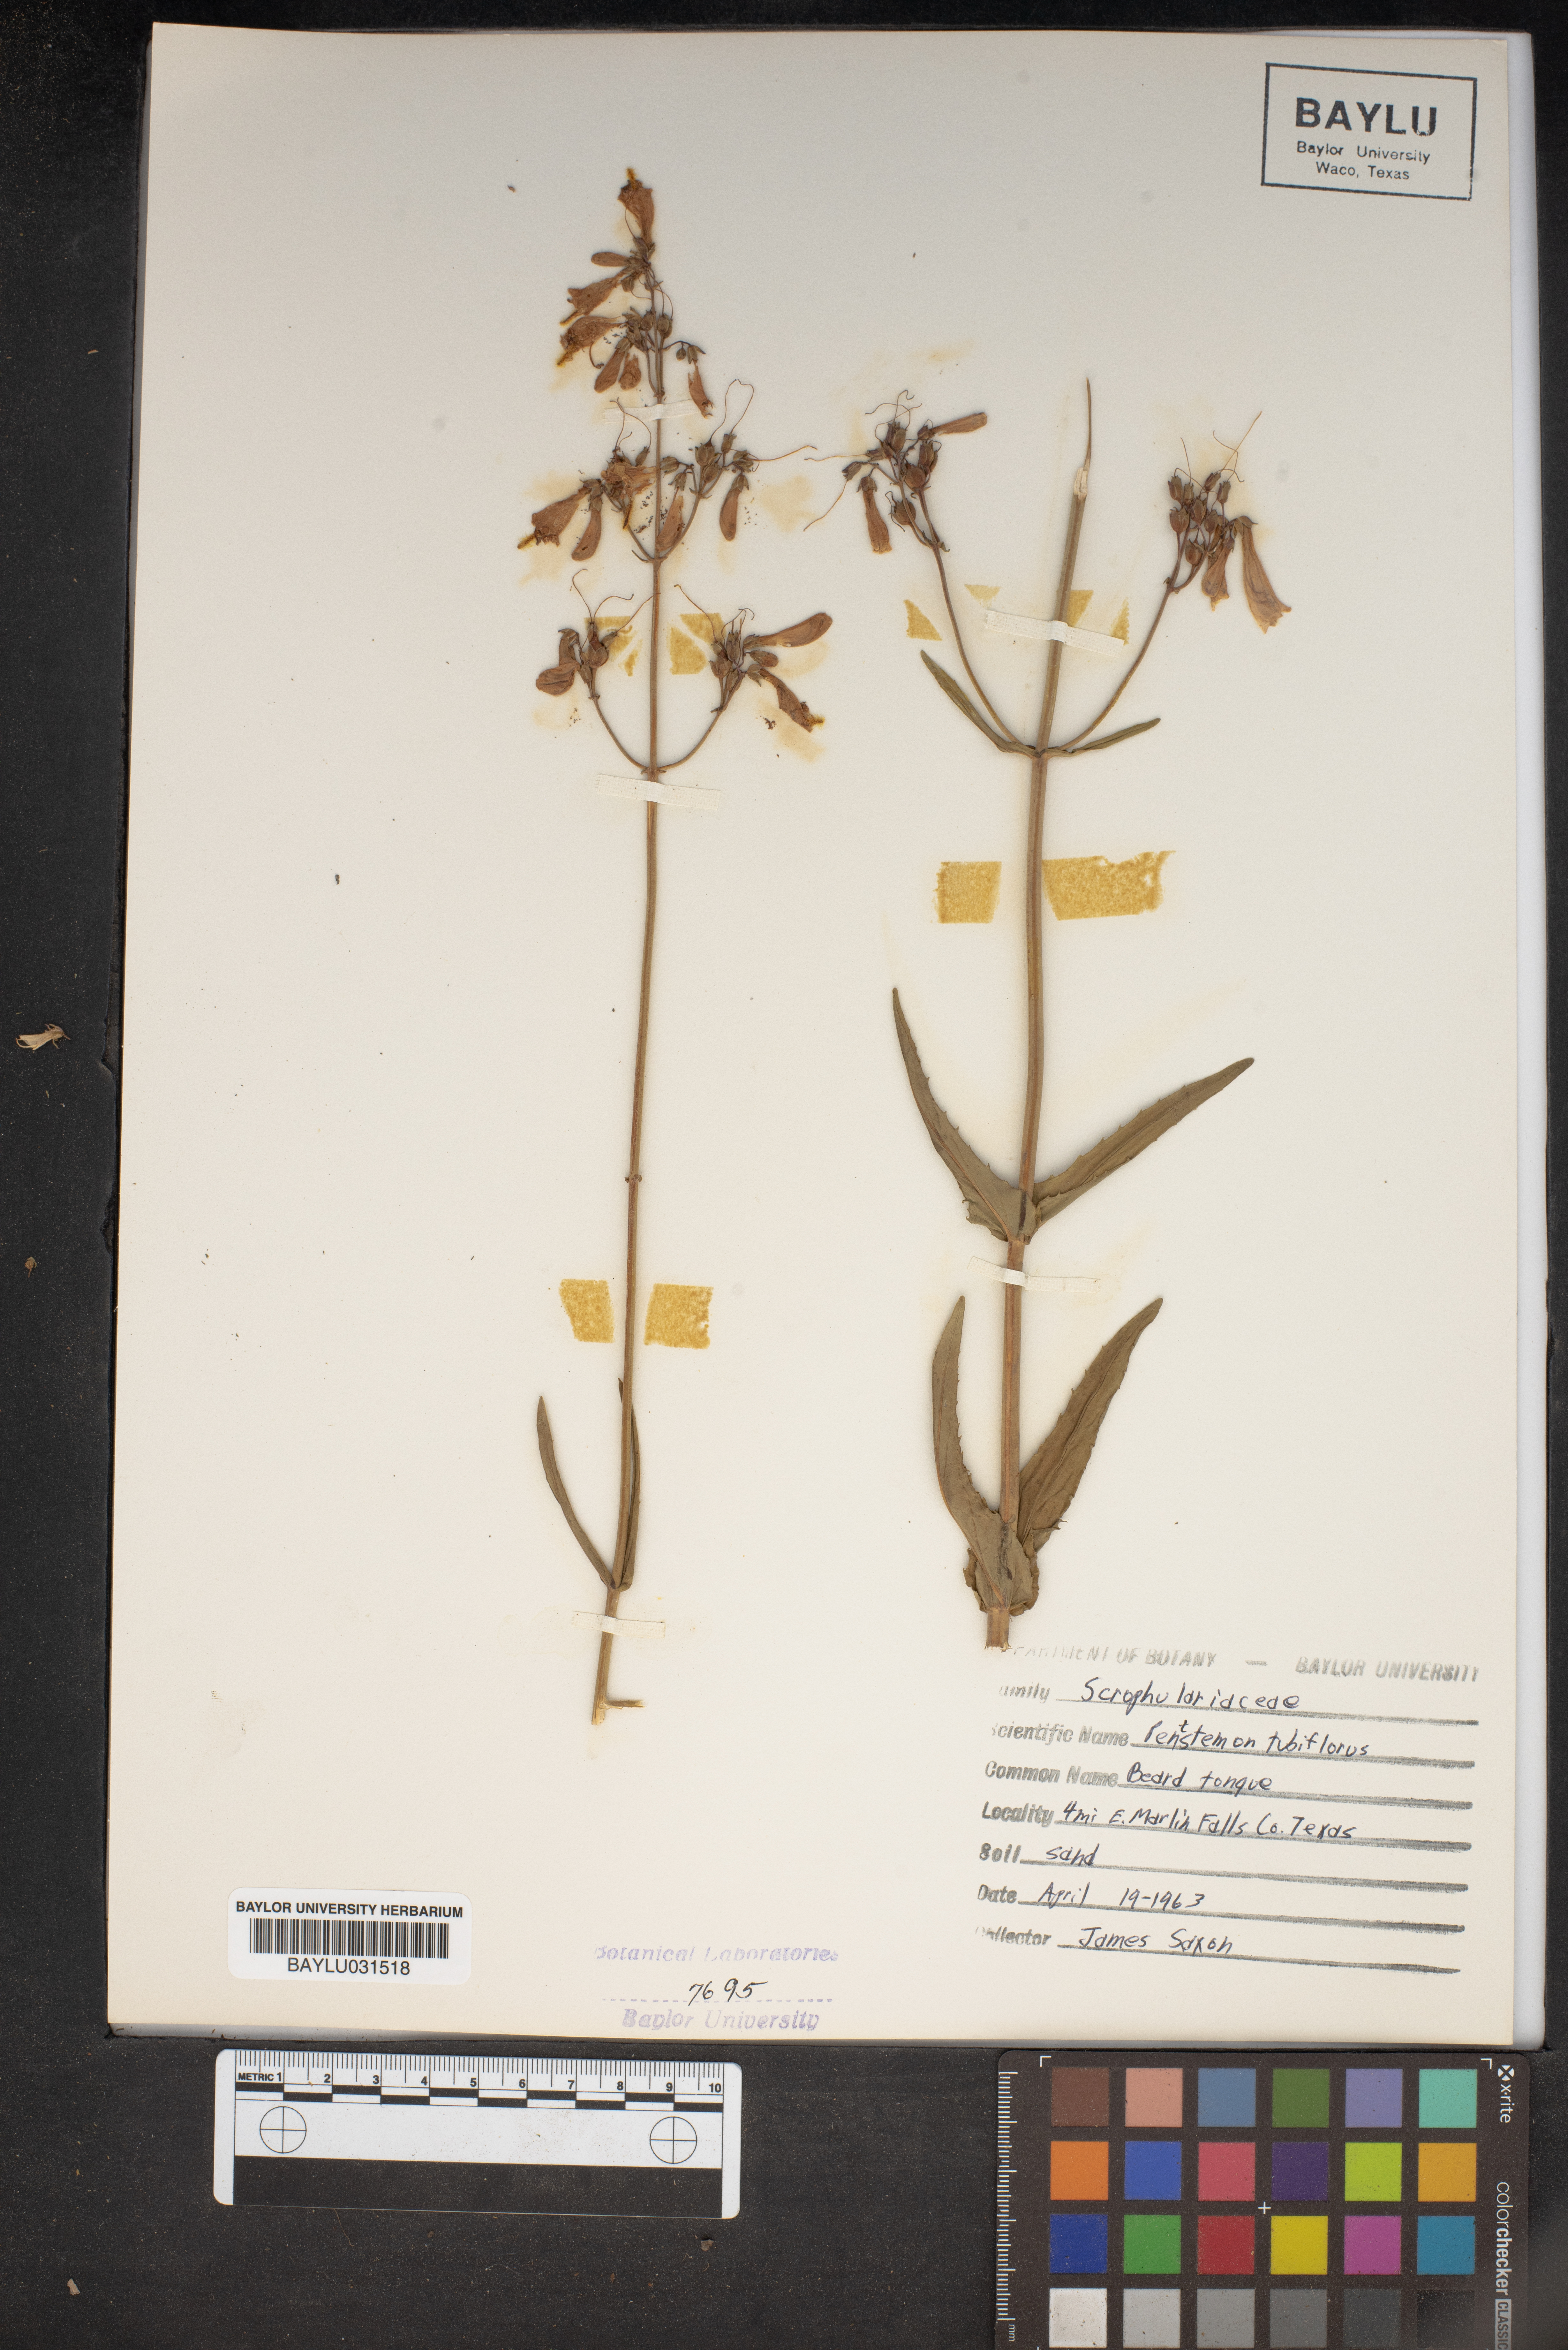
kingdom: Plantae
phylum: Tracheophyta
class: Magnoliopsida
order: Lamiales
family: Plantaginaceae
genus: Penstemon
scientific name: Penstemon tubaeflorus
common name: White wand beardtongue
